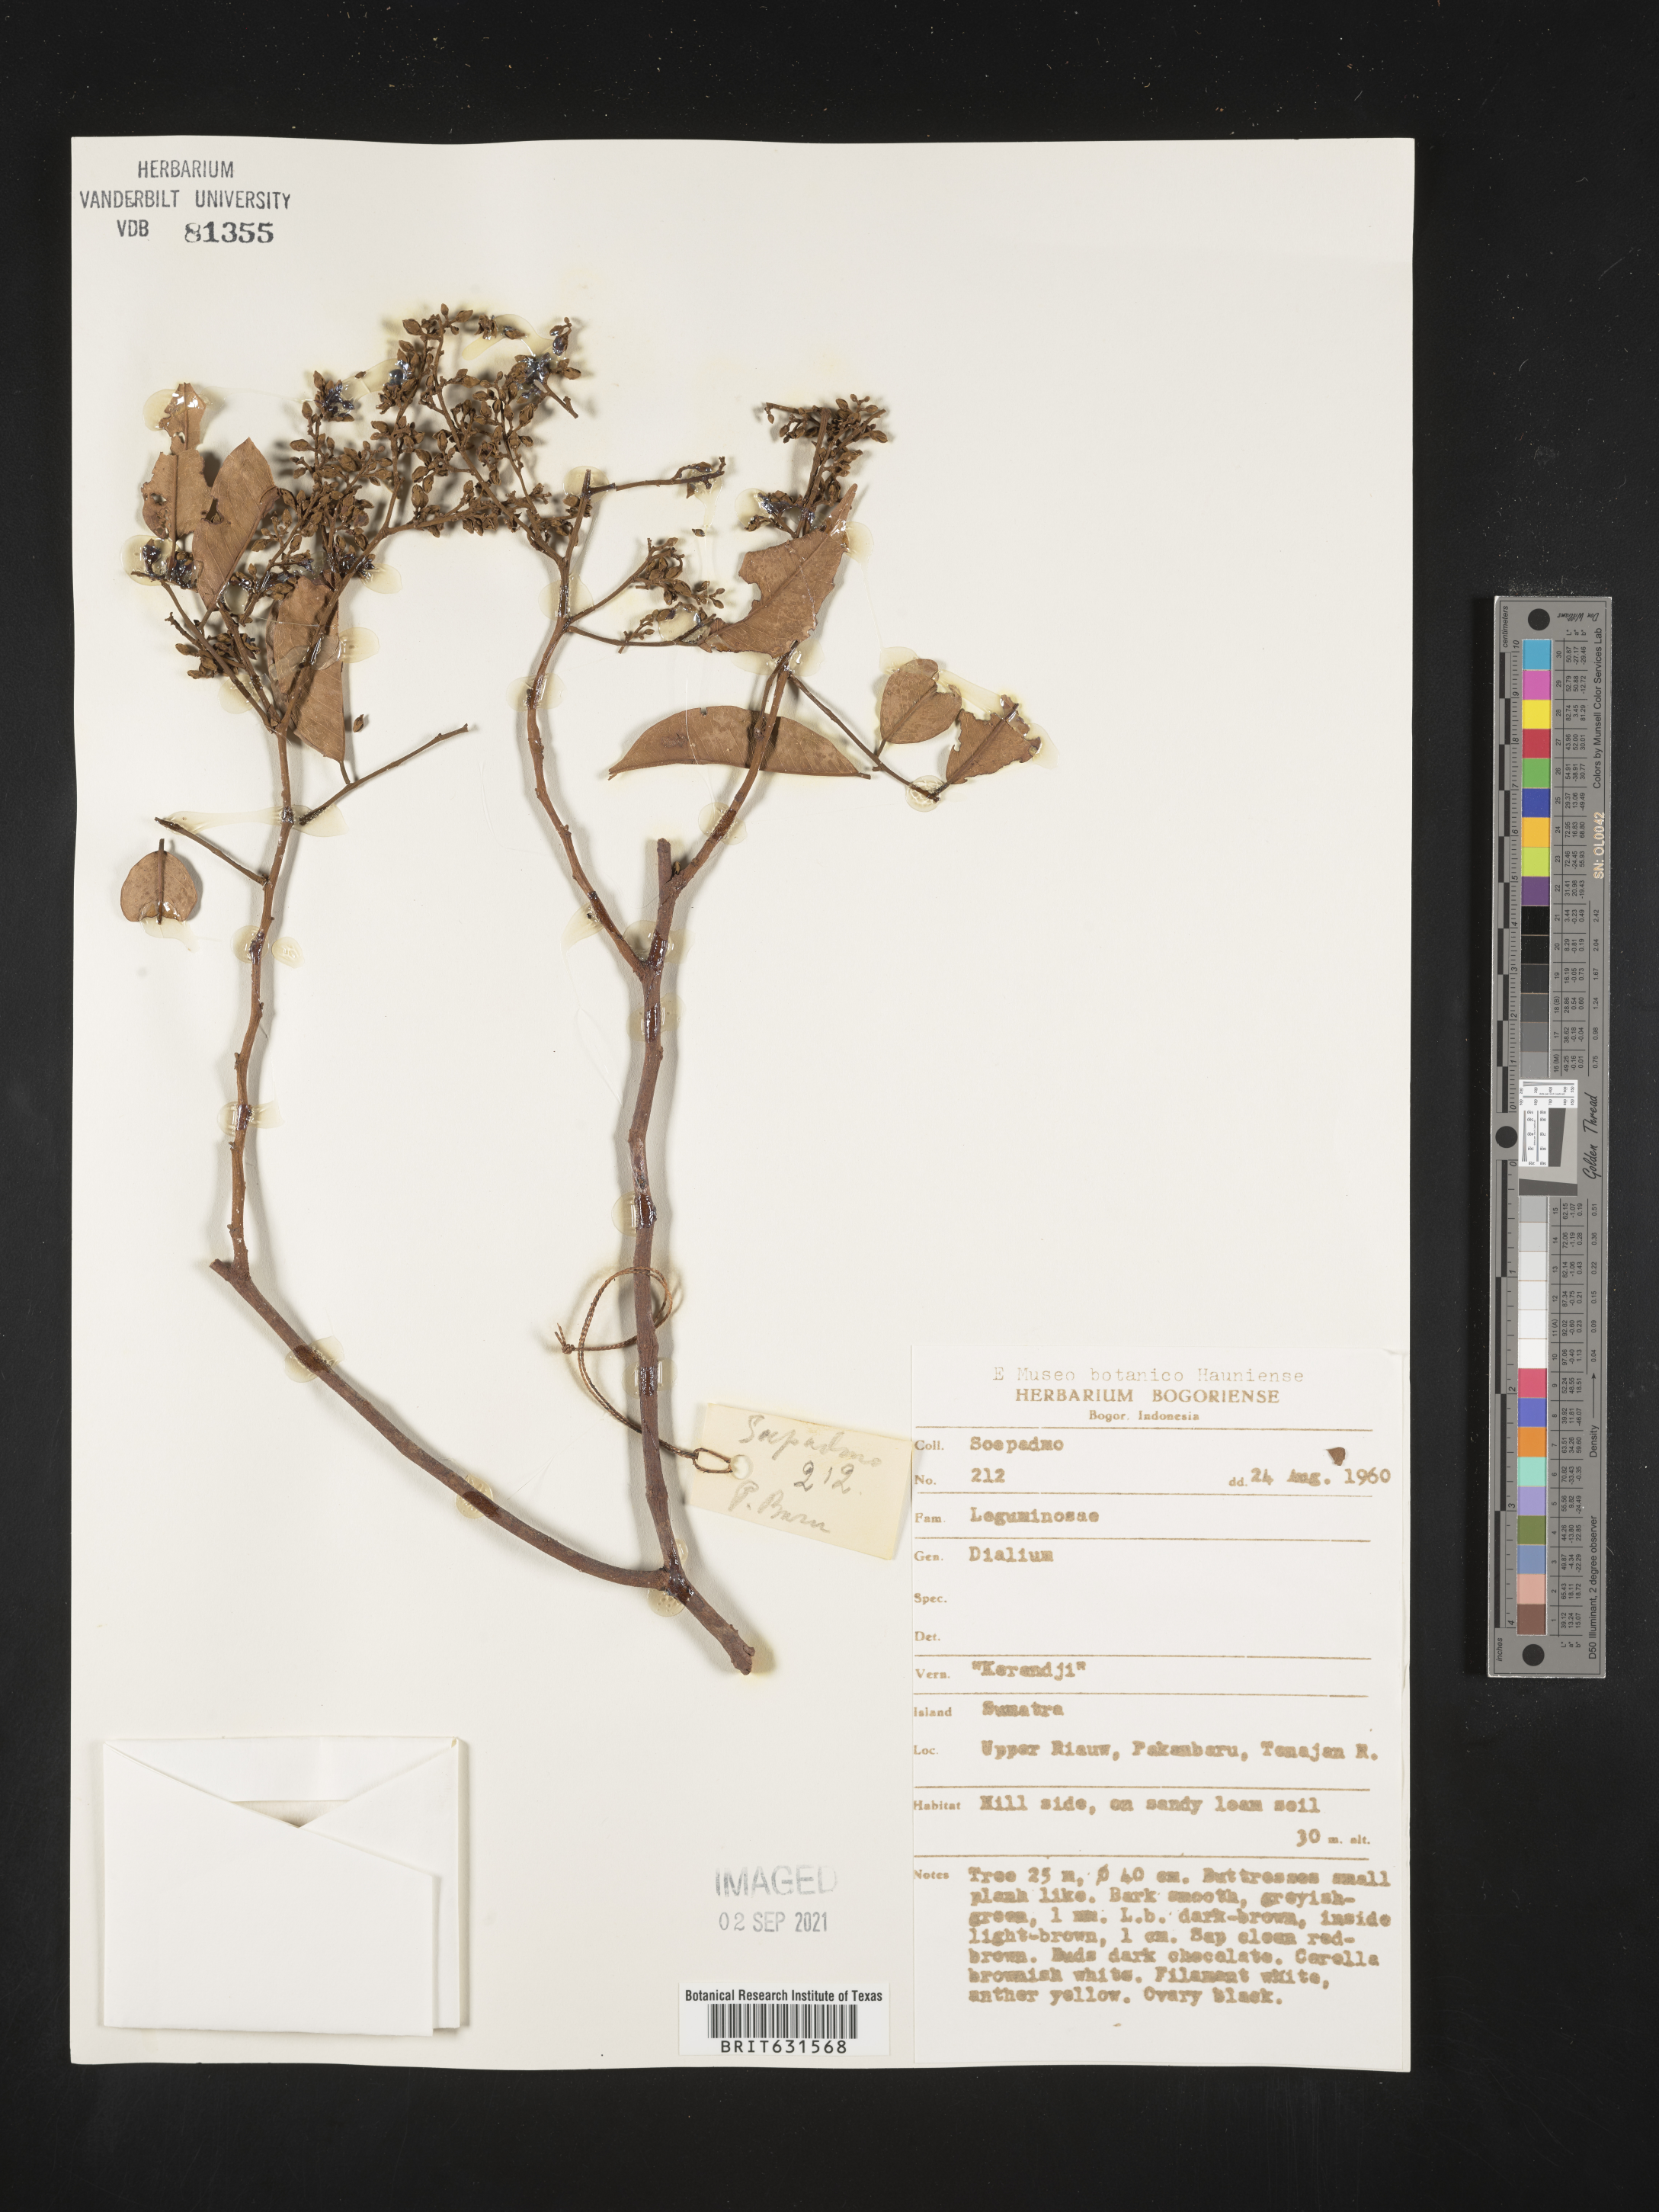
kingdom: Plantae
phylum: Tracheophyta
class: Magnoliopsida
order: Fabales
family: Fabaceae
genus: Dialium
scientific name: Dialium
